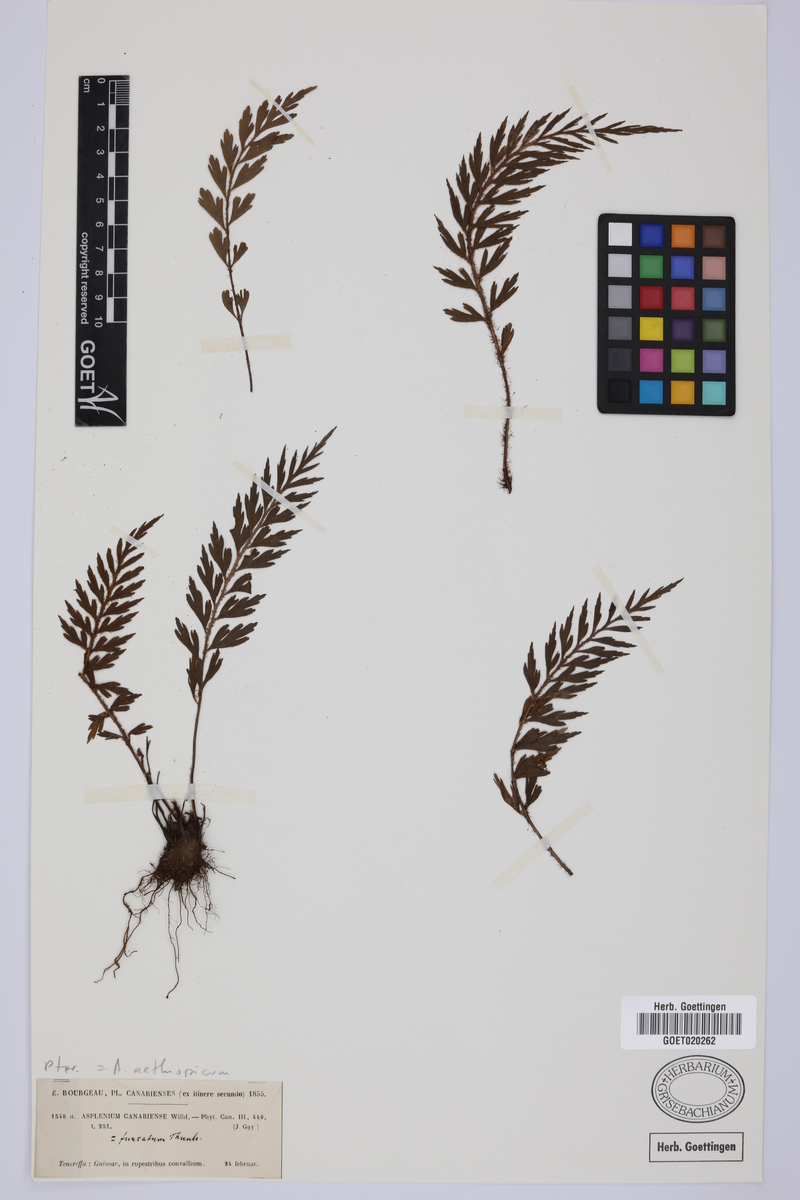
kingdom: Plantae
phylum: Tracheophyta
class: Polypodiopsida
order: Polypodiales
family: Aspleniaceae
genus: Asplenium
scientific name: Asplenium aethiopicum
